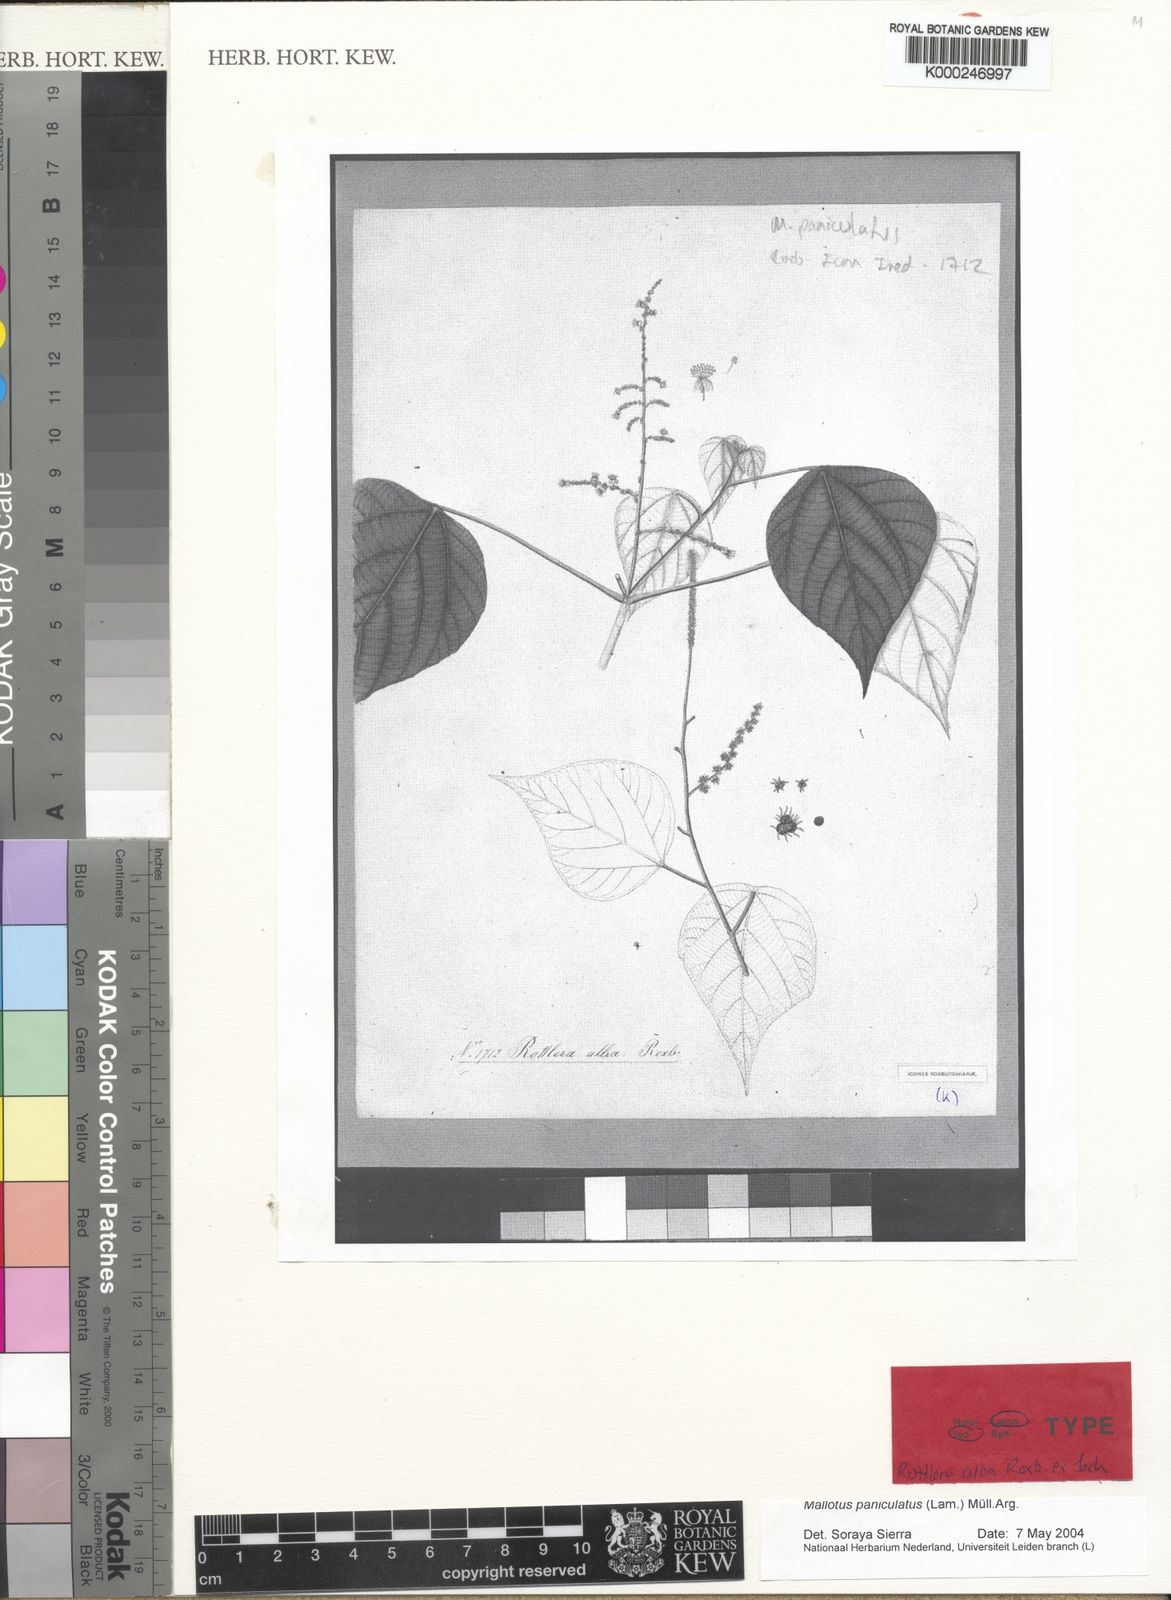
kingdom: Plantae
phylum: Tracheophyta
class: Magnoliopsida
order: Malpighiales
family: Euphorbiaceae
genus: Mallotus
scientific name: Mallotus paniculatus
